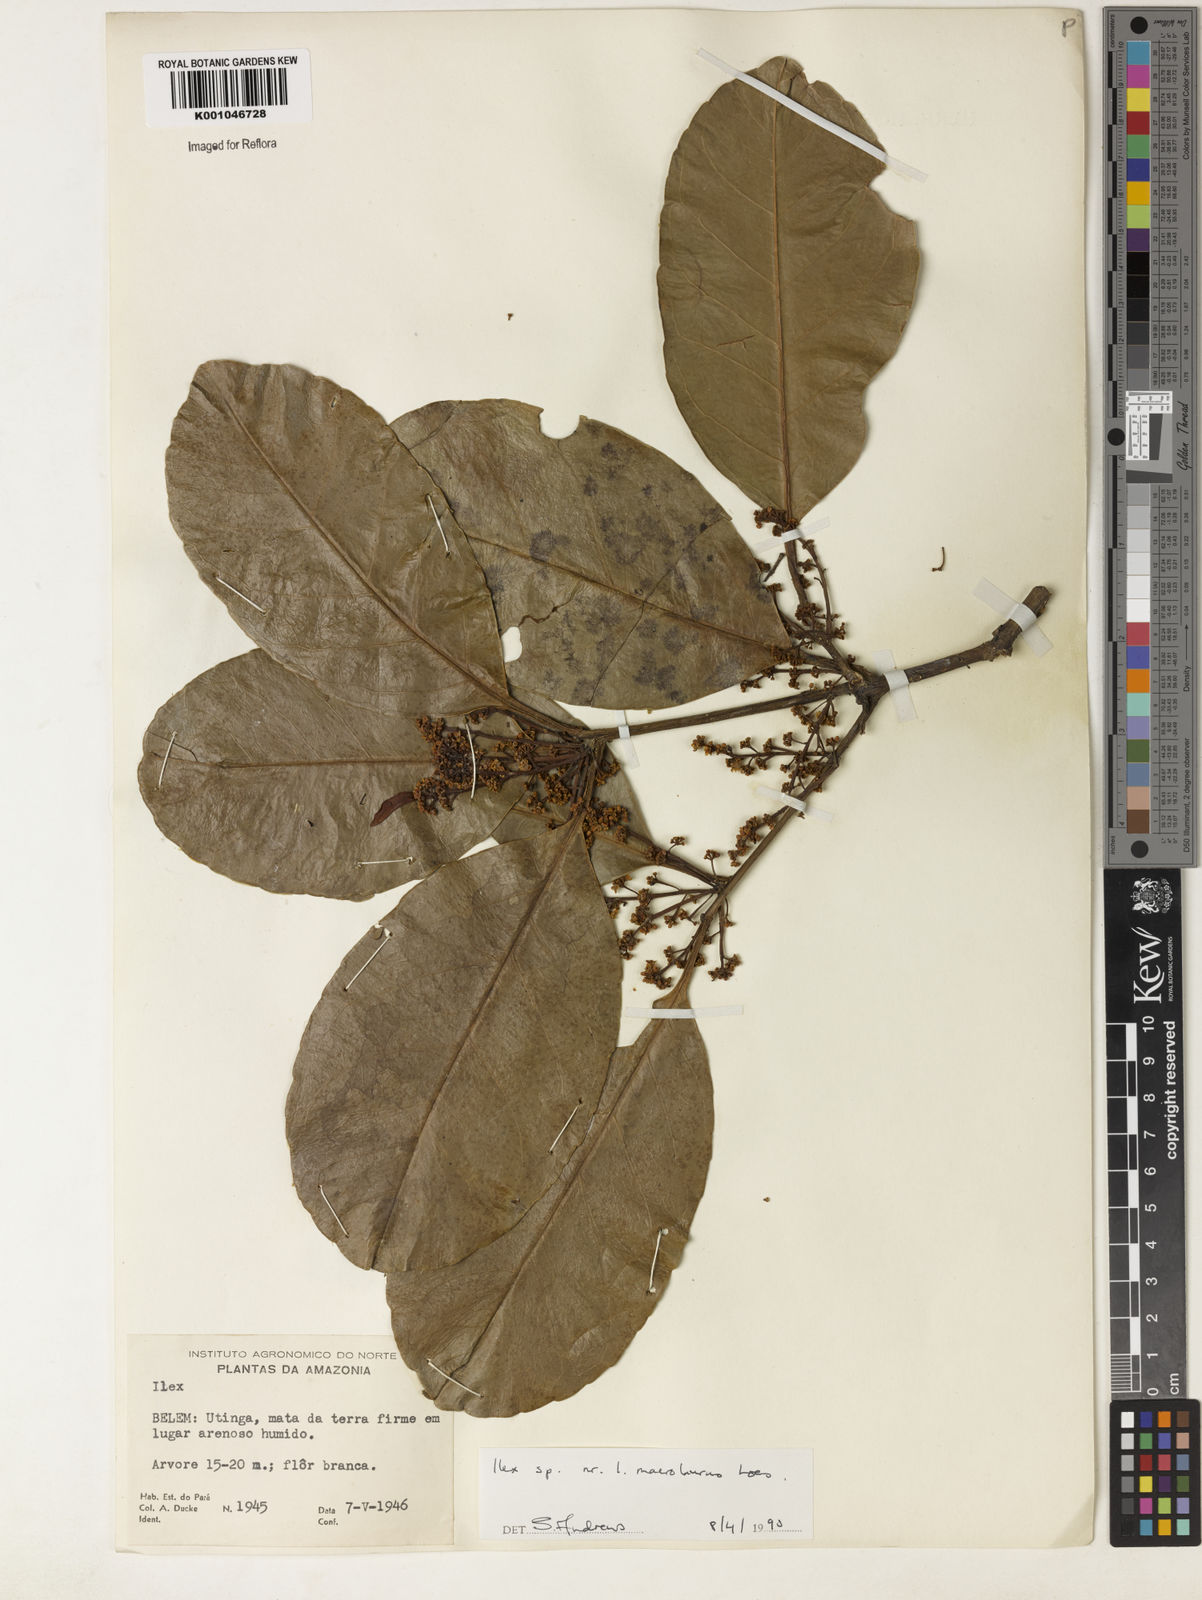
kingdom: Plantae
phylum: Tracheophyta
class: Magnoliopsida
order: Aquifoliales
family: Aquifoliaceae
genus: Ilex
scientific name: Ilex laureola
